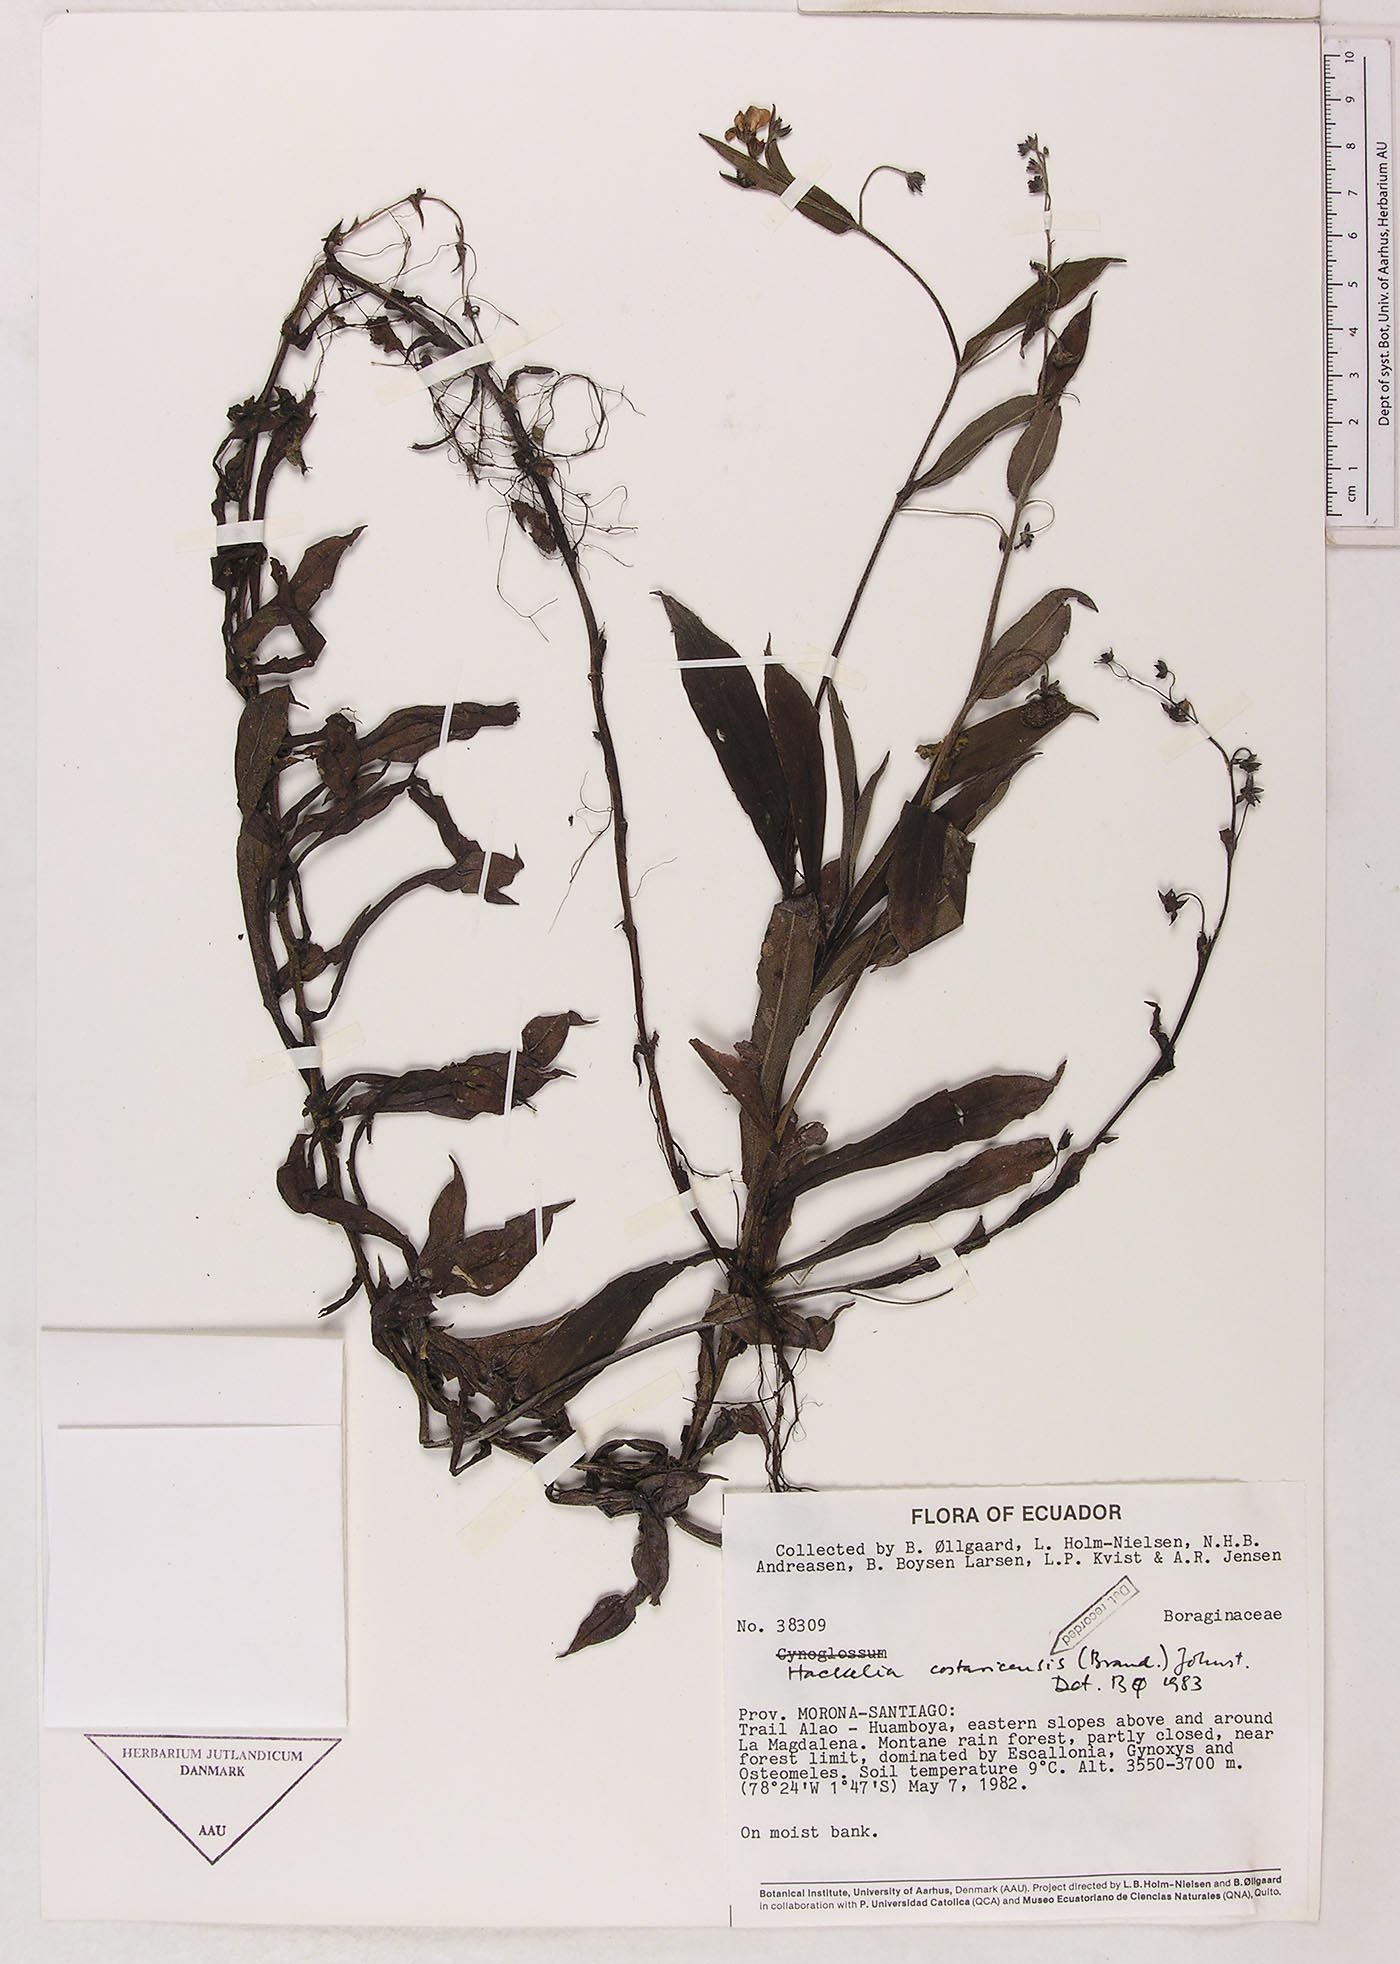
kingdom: Plantae
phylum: Tracheophyta
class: Magnoliopsida
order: Boraginales
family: Boraginaceae
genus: Selkirkia
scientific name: Selkirkia trianaeum
